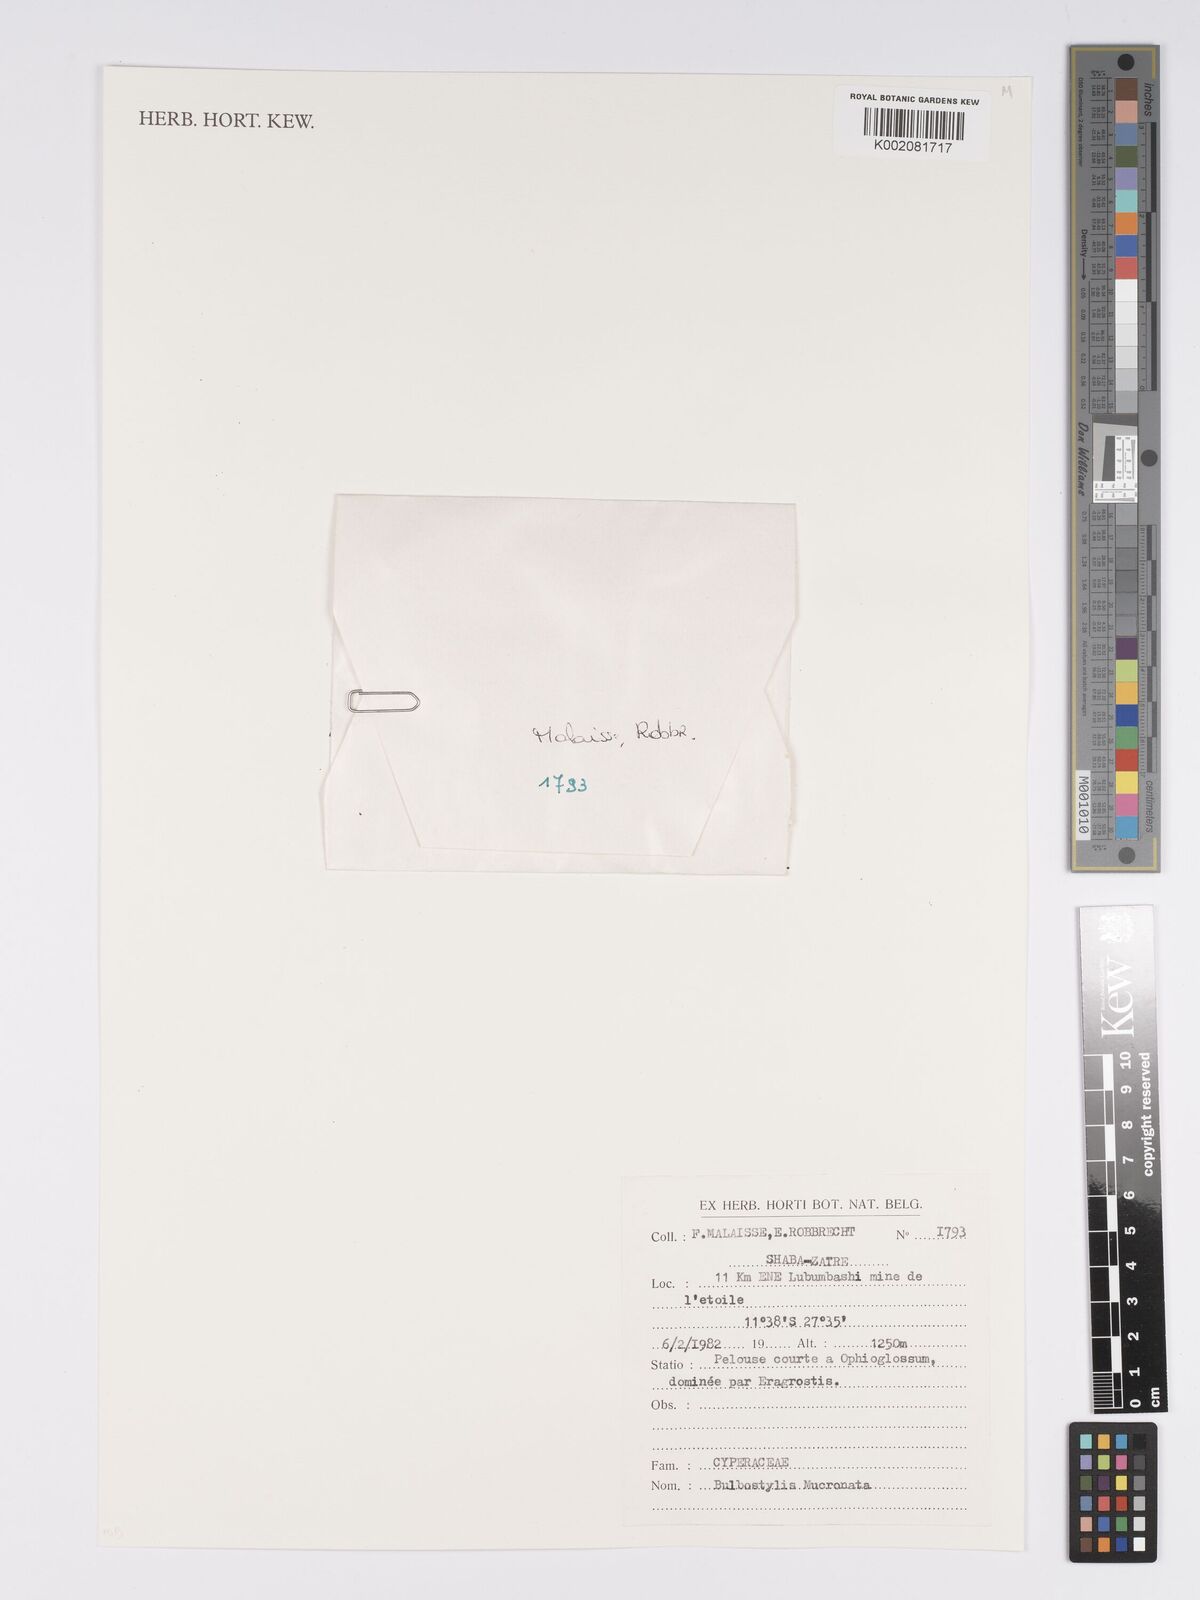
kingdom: Plantae
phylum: Tracheophyta
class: Liliopsida
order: Poales
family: Cyperaceae
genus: Bulbostylis
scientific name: Bulbostylis mucronata
